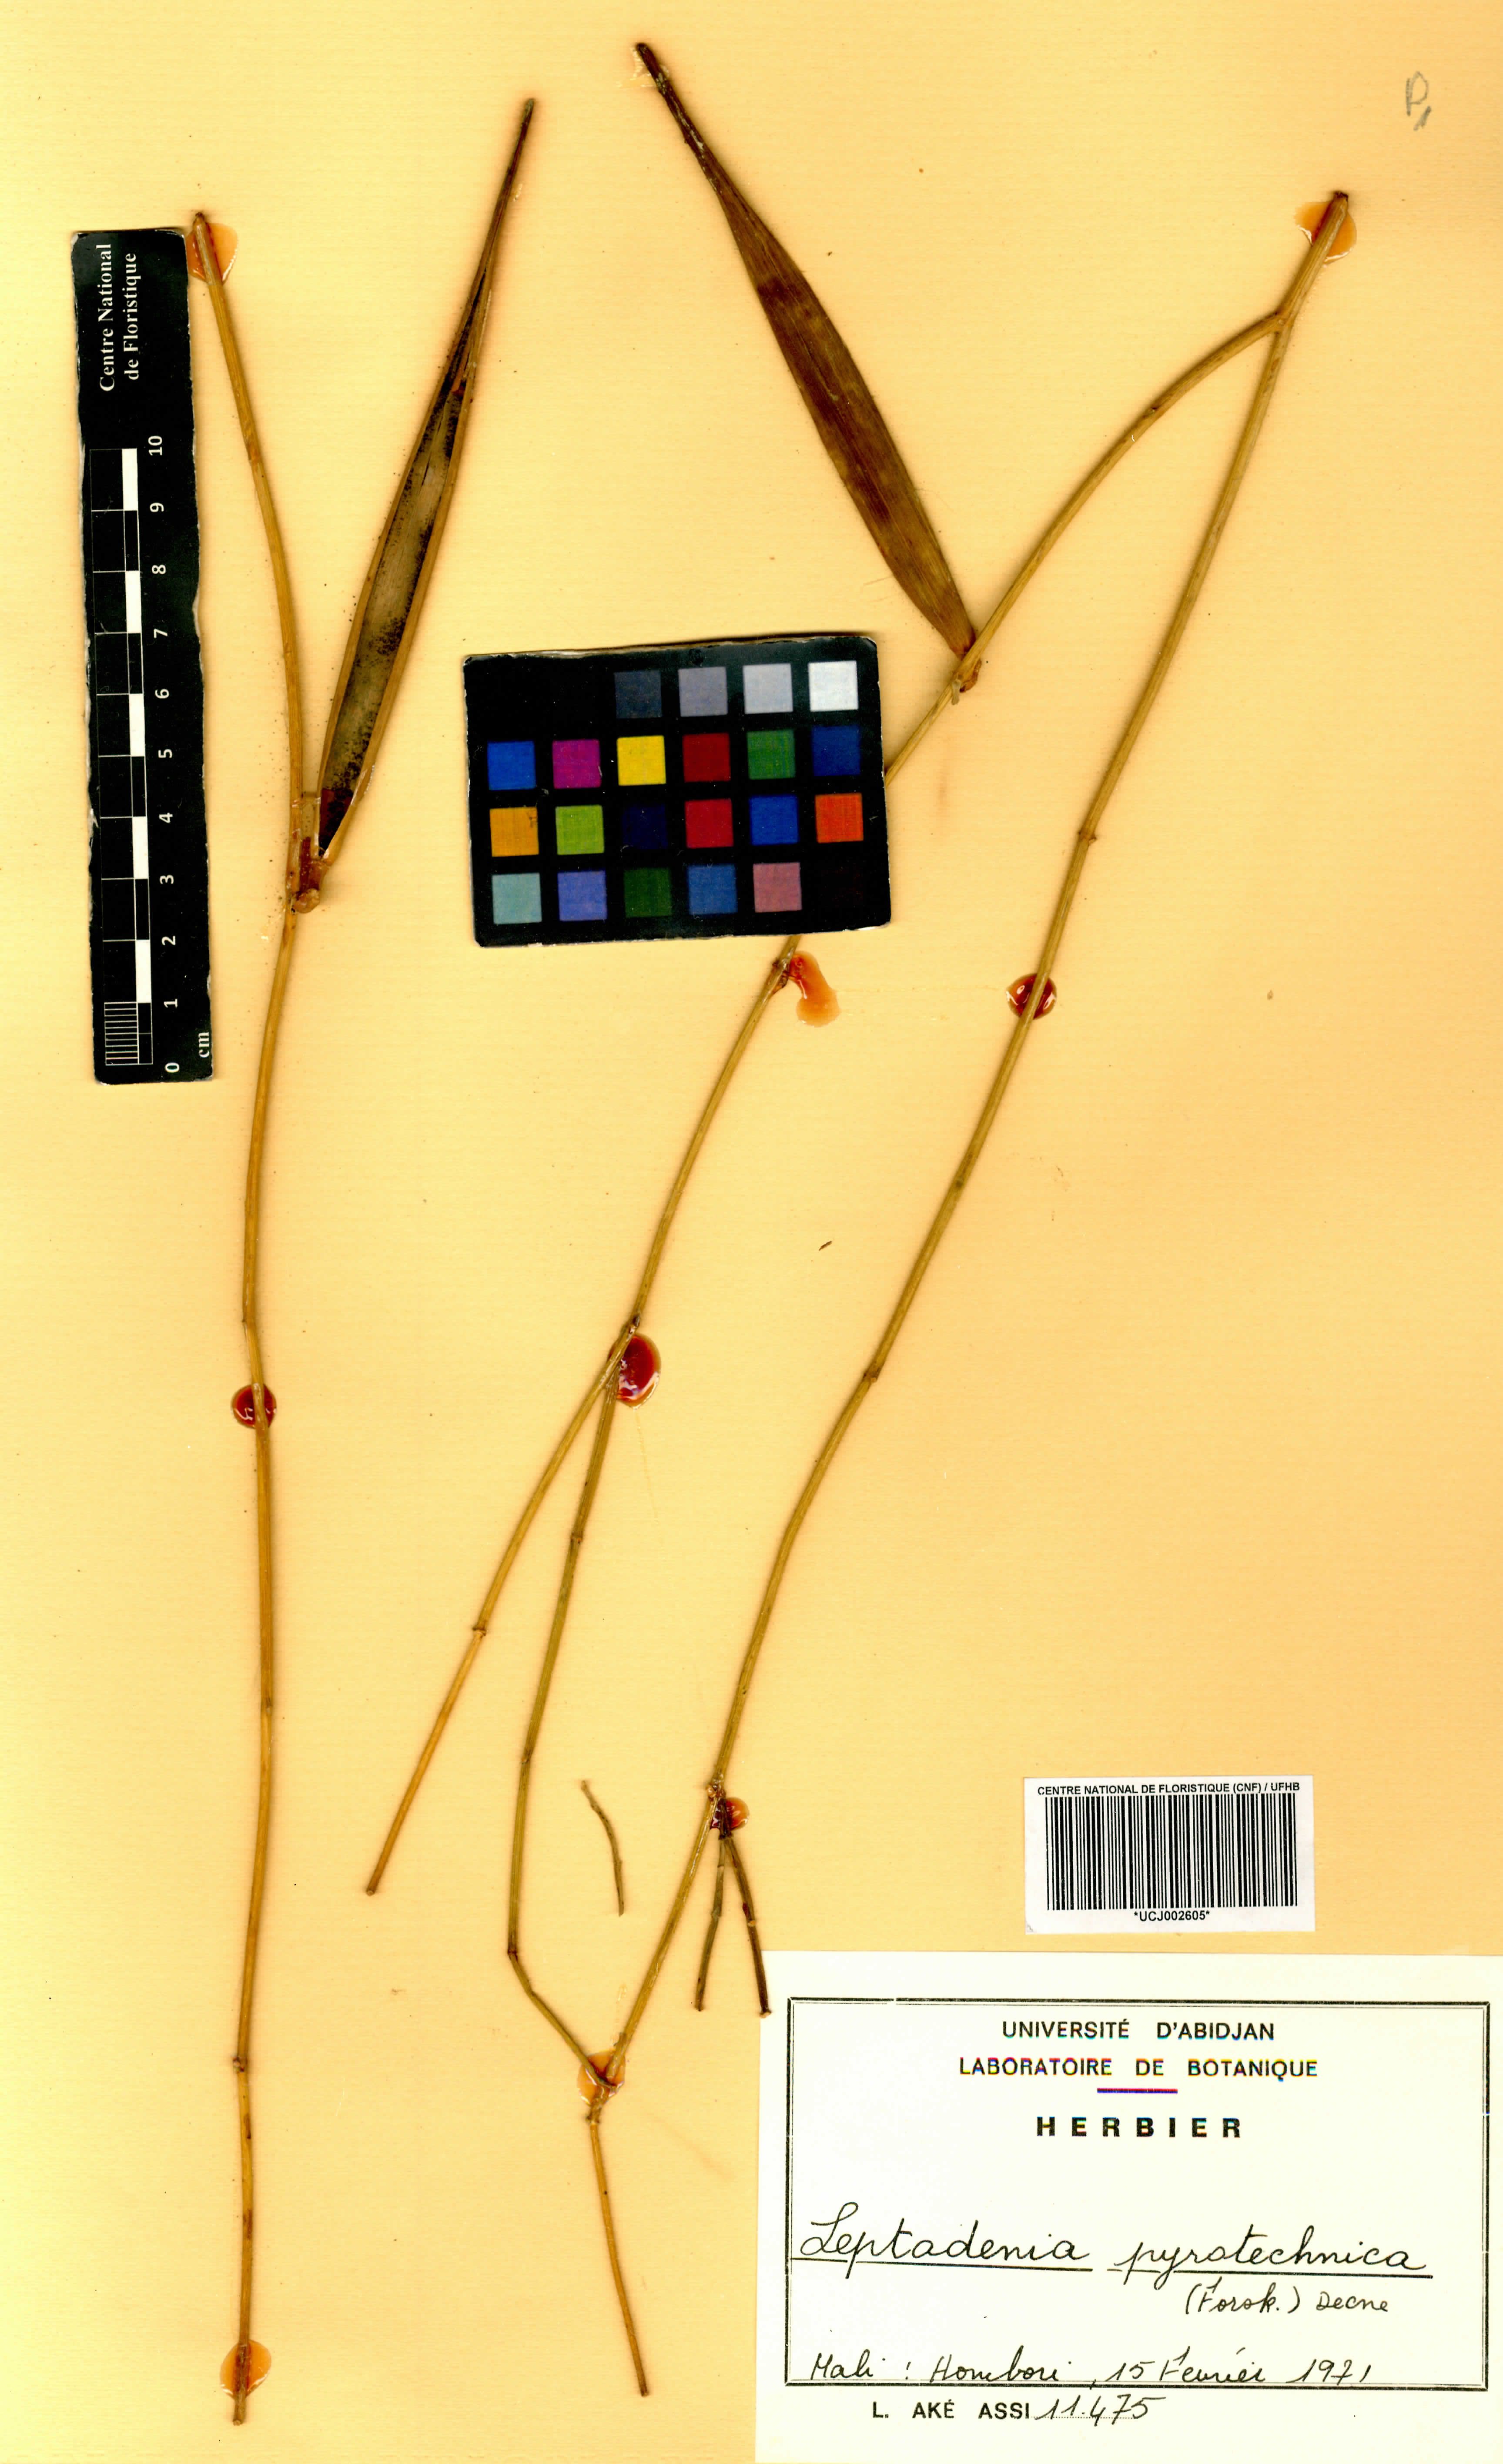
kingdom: Plantae
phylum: Tracheophyta
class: Magnoliopsida
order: Gentianales
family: Apocynaceae
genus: Leptadenia
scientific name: Leptadenia pyrotechnica
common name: Broom brush
